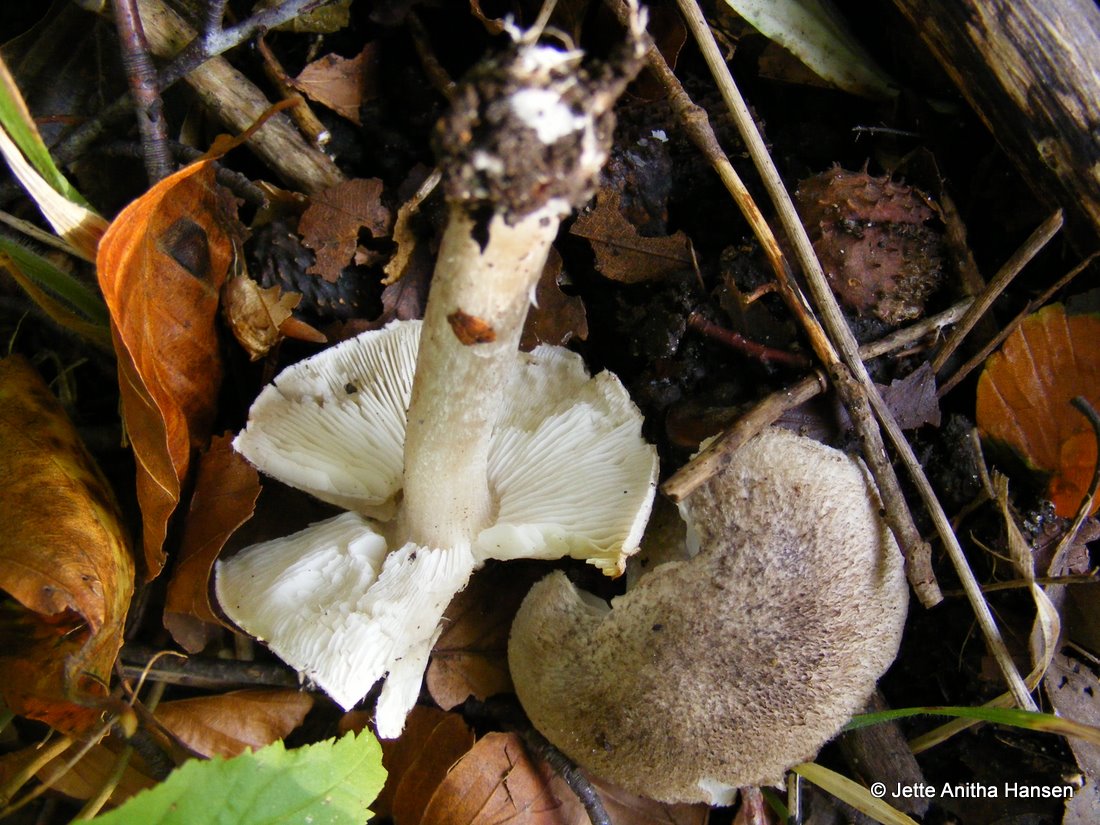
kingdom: Fungi
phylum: Basidiomycota
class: Agaricomycetes
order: Agaricales
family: Tricholomataceae
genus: Tricholoma
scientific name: Tricholoma scalpturatum
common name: gulplettet ridderhat
